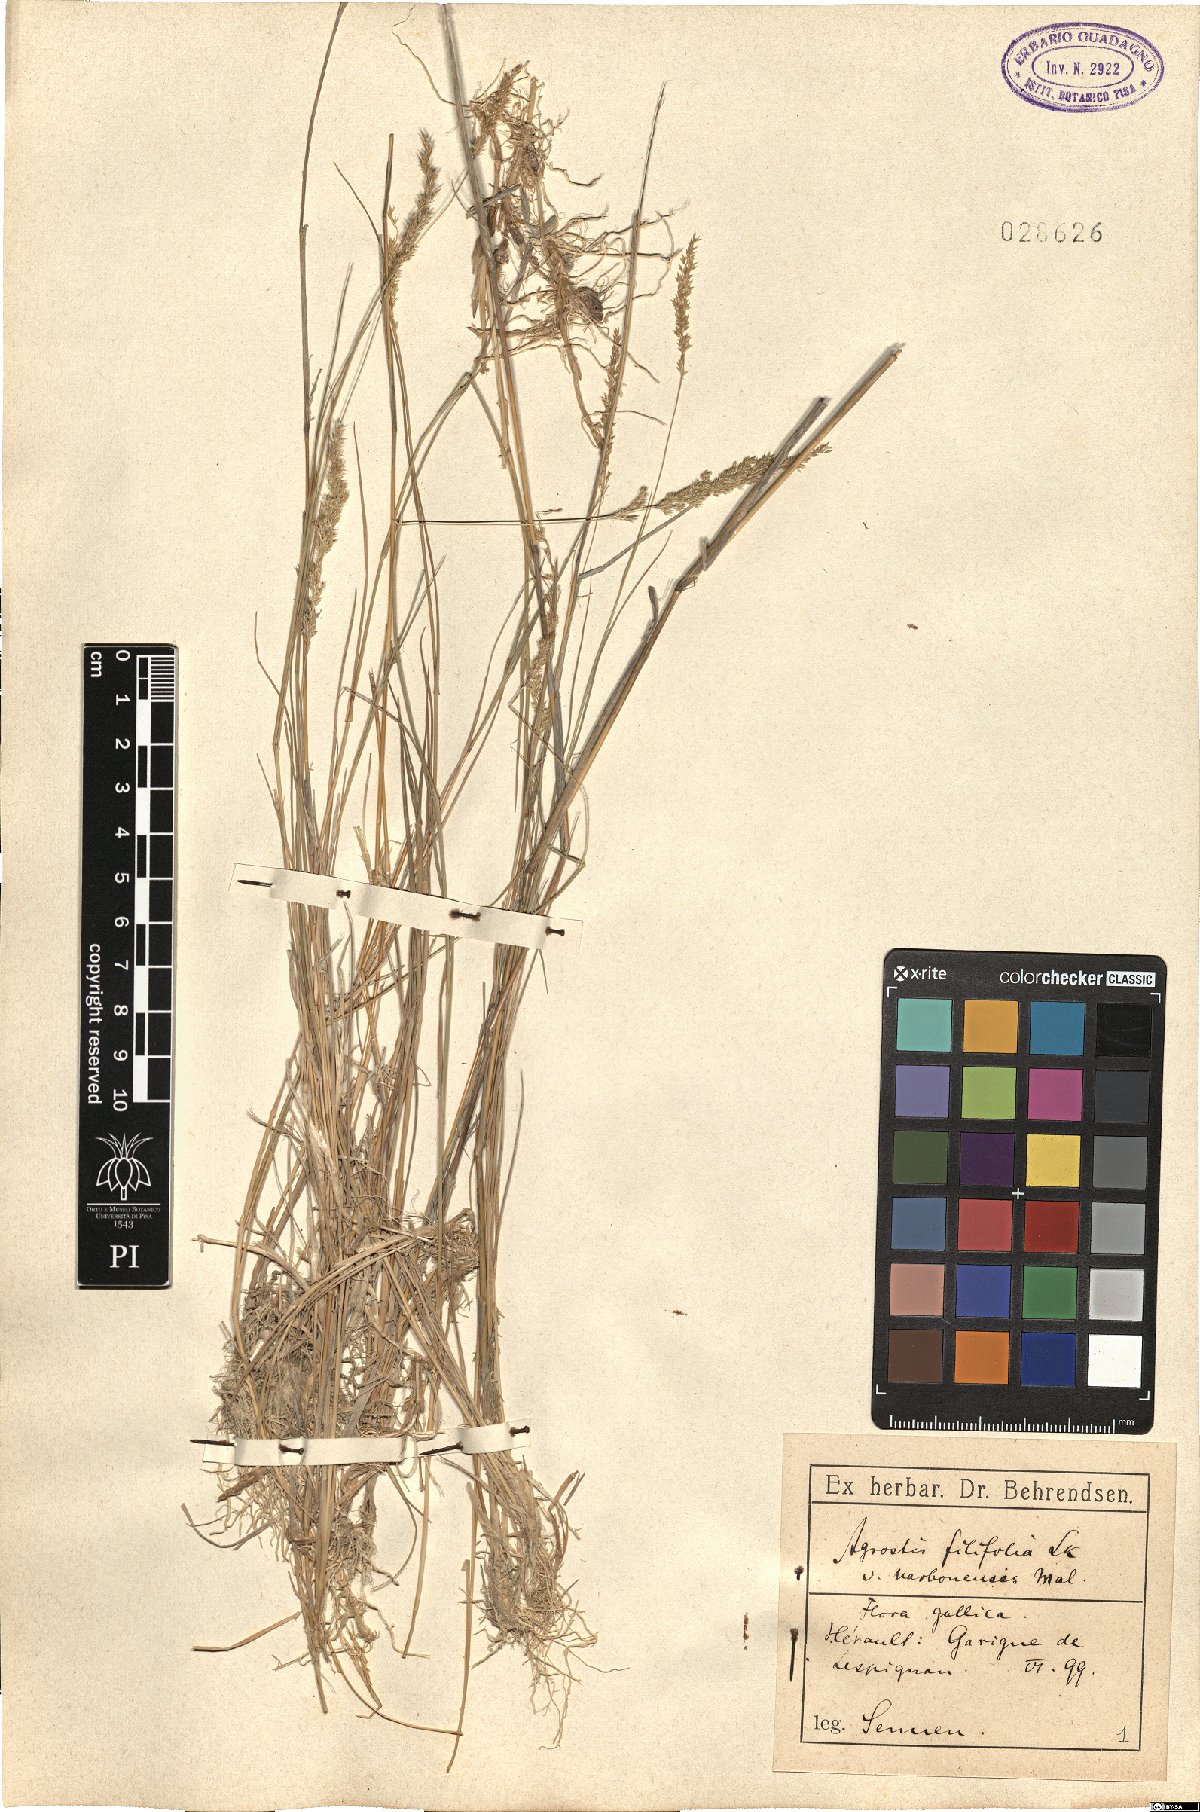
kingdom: Plantae
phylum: Tracheophyta
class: Liliopsida
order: Poales
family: Poaceae
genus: Agrostis
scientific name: Agrostis stolonifera
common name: Creeping bentgrass
